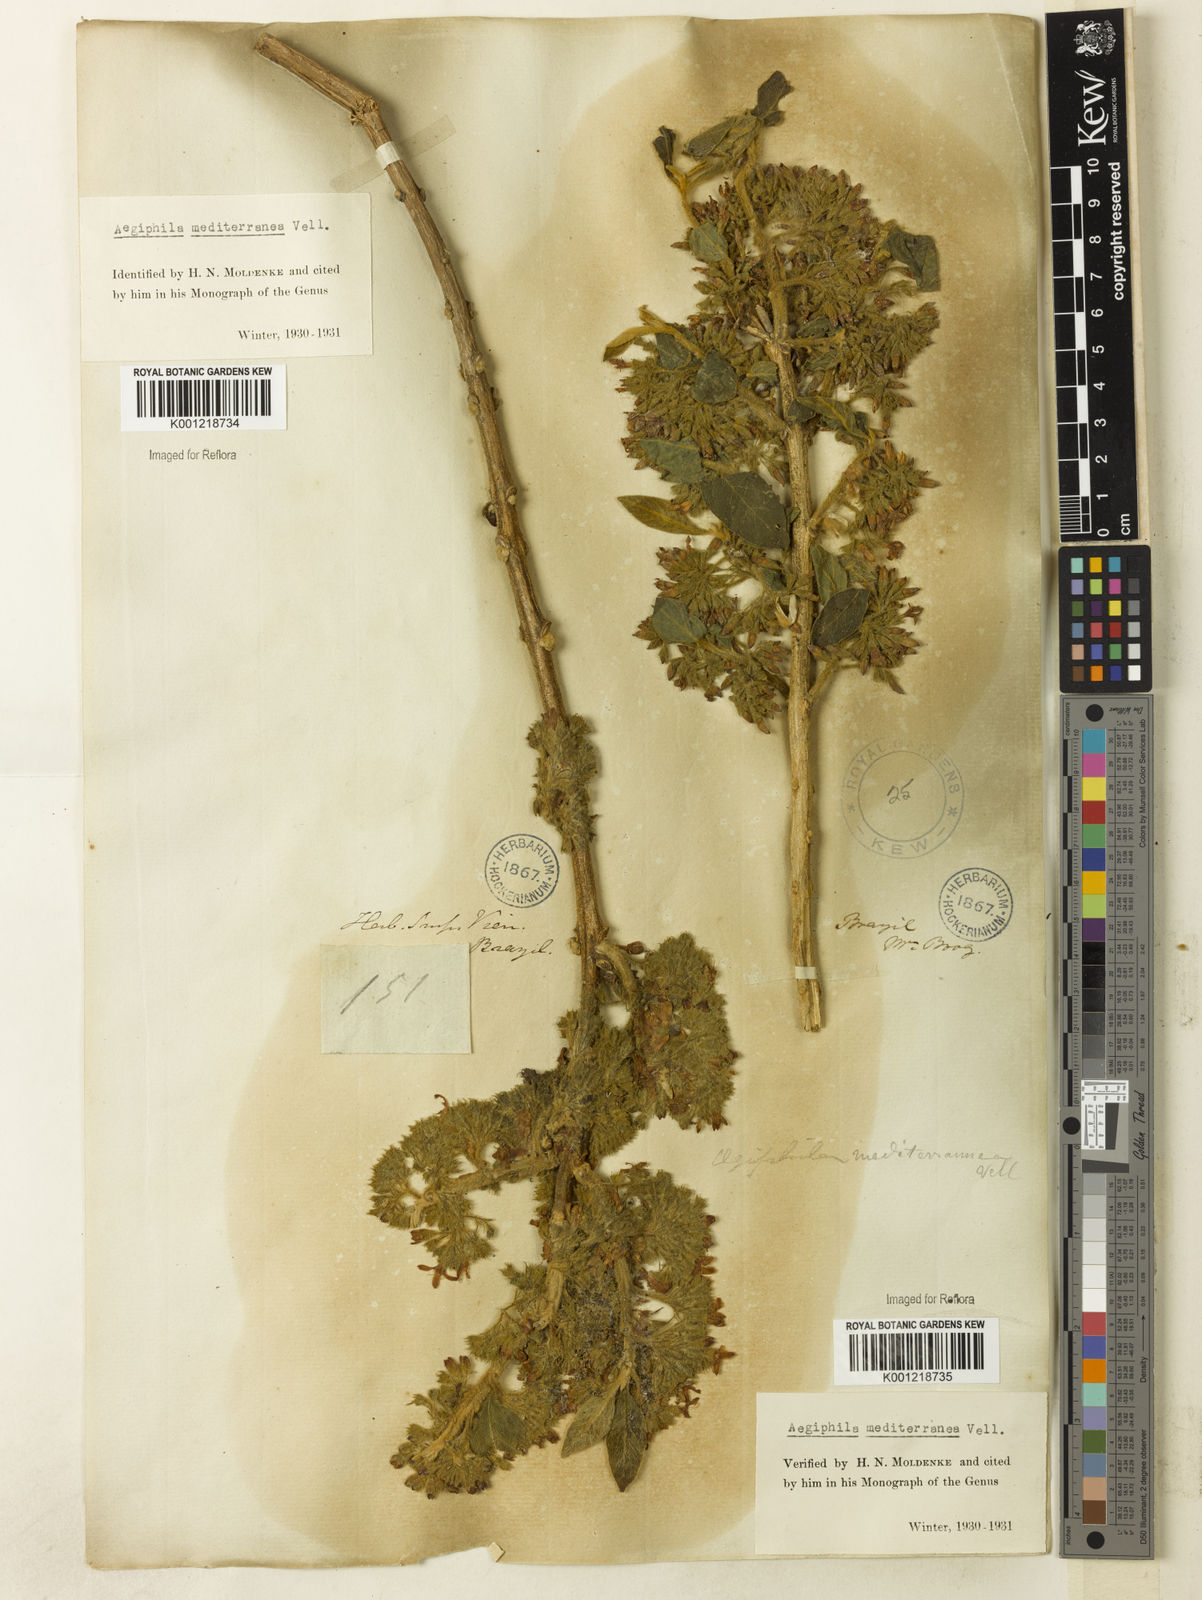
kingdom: Plantae
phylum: Tracheophyta
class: Magnoliopsida
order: Lamiales
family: Lamiaceae
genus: Aegiphila
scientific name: Aegiphila mediterranea
